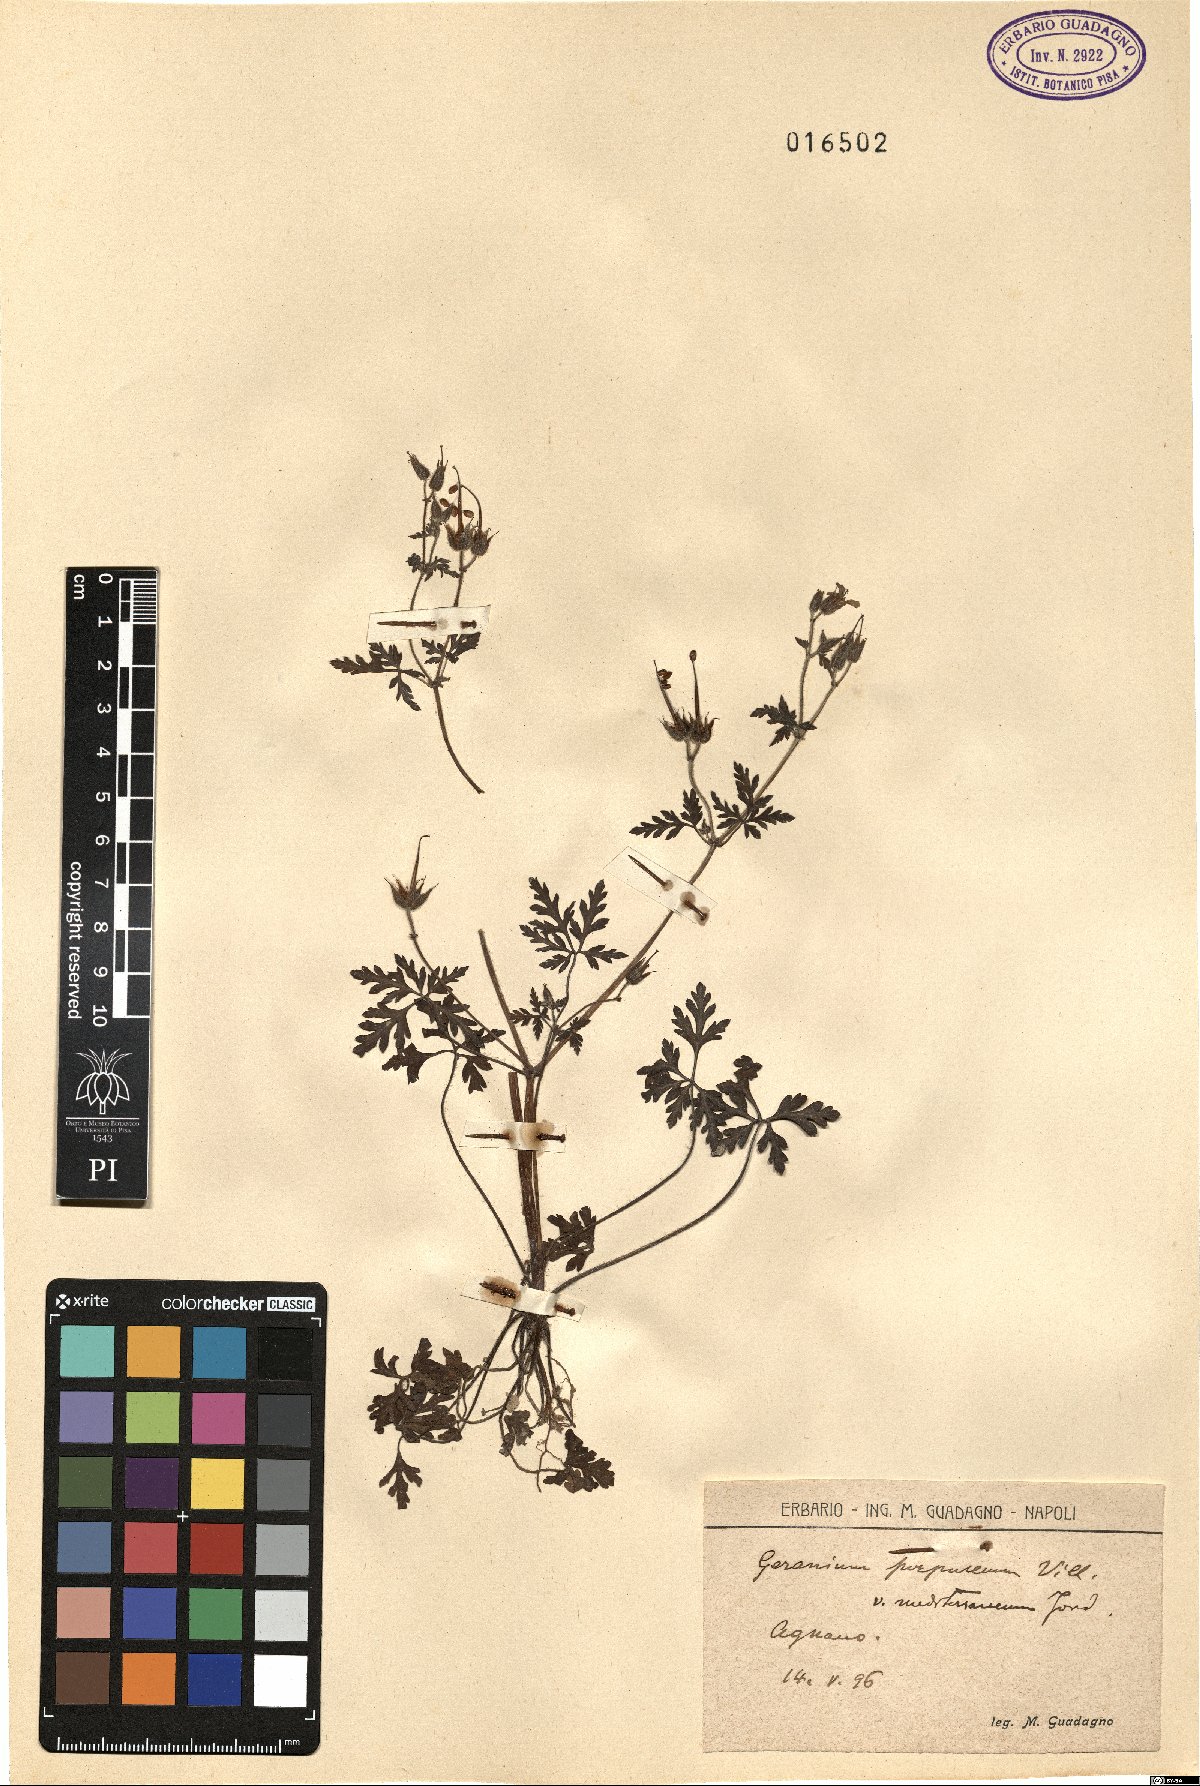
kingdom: Plantae
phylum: Tracheophyta
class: Magnoliopsida
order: Geraniales
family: Geraniaceae
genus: Geranium
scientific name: Geranium purpureum
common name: Little-robin
